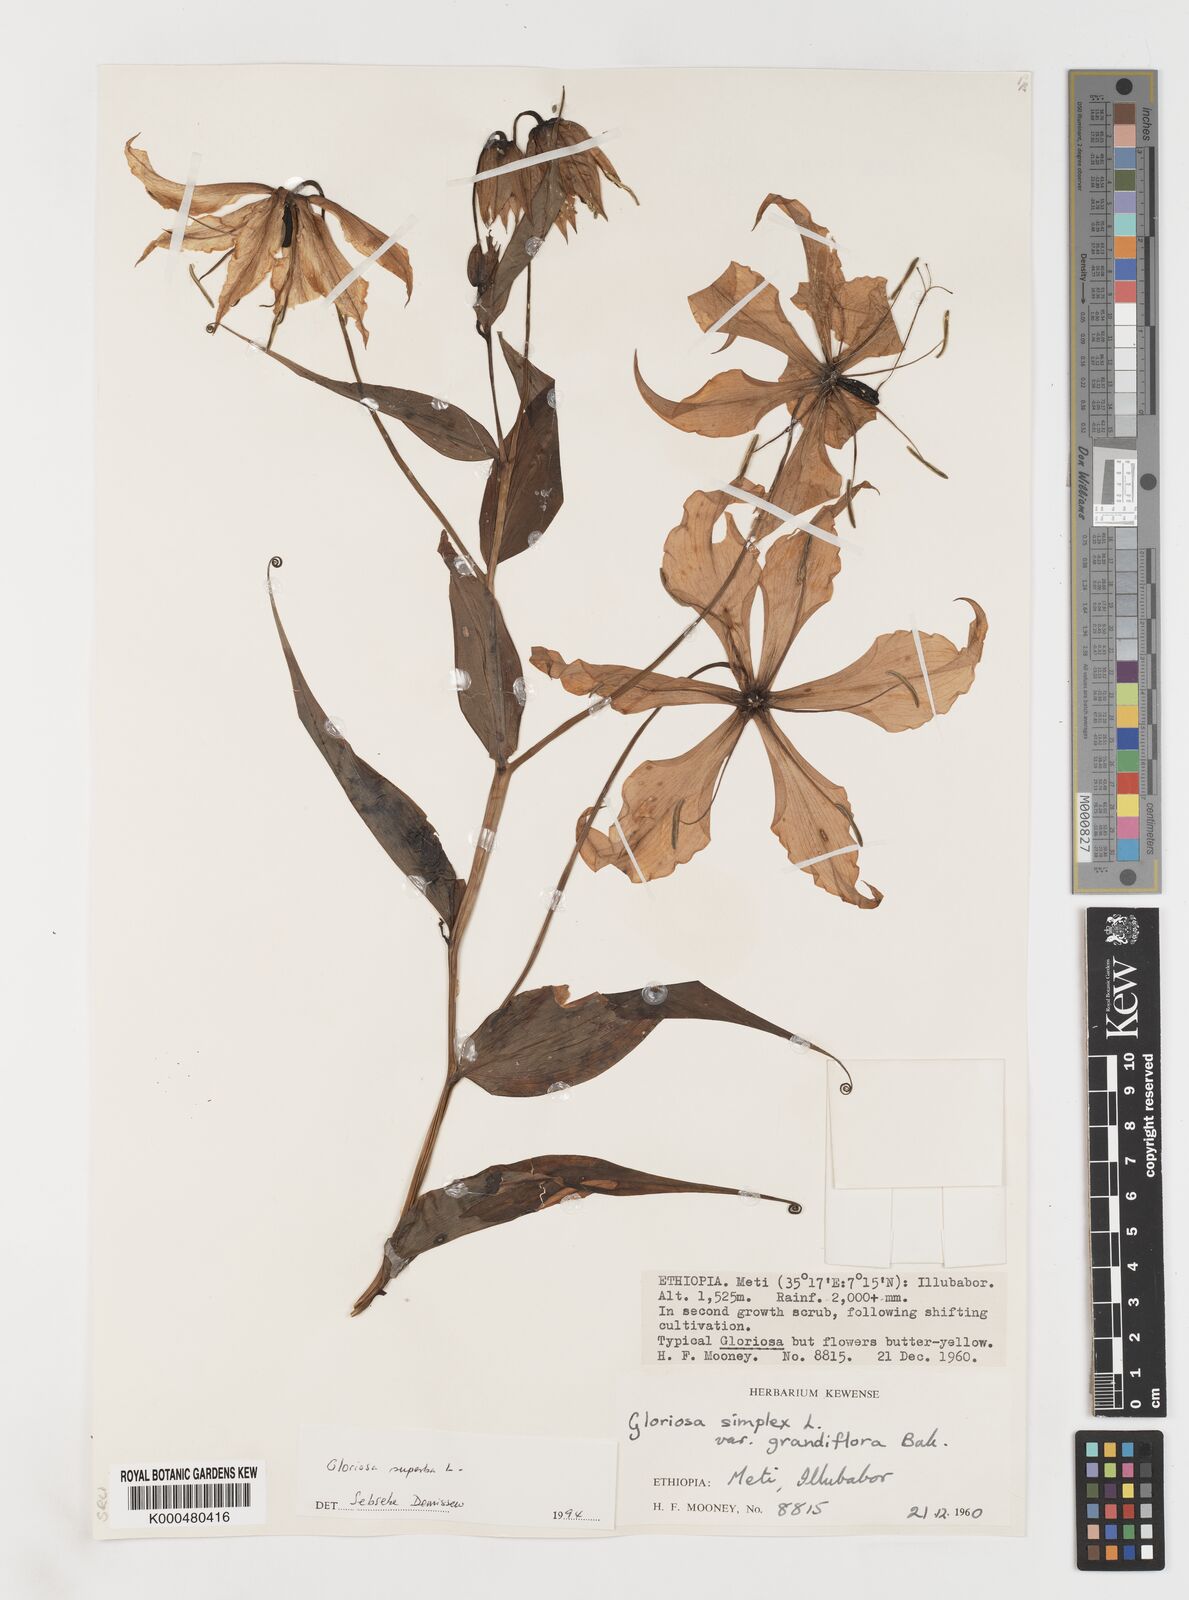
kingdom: Plantae
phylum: Tracheophyta
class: Liliopsida
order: Liliales
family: Colchicaceae
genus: Gloriosa
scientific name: Gloriosa superba
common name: Flame lily
